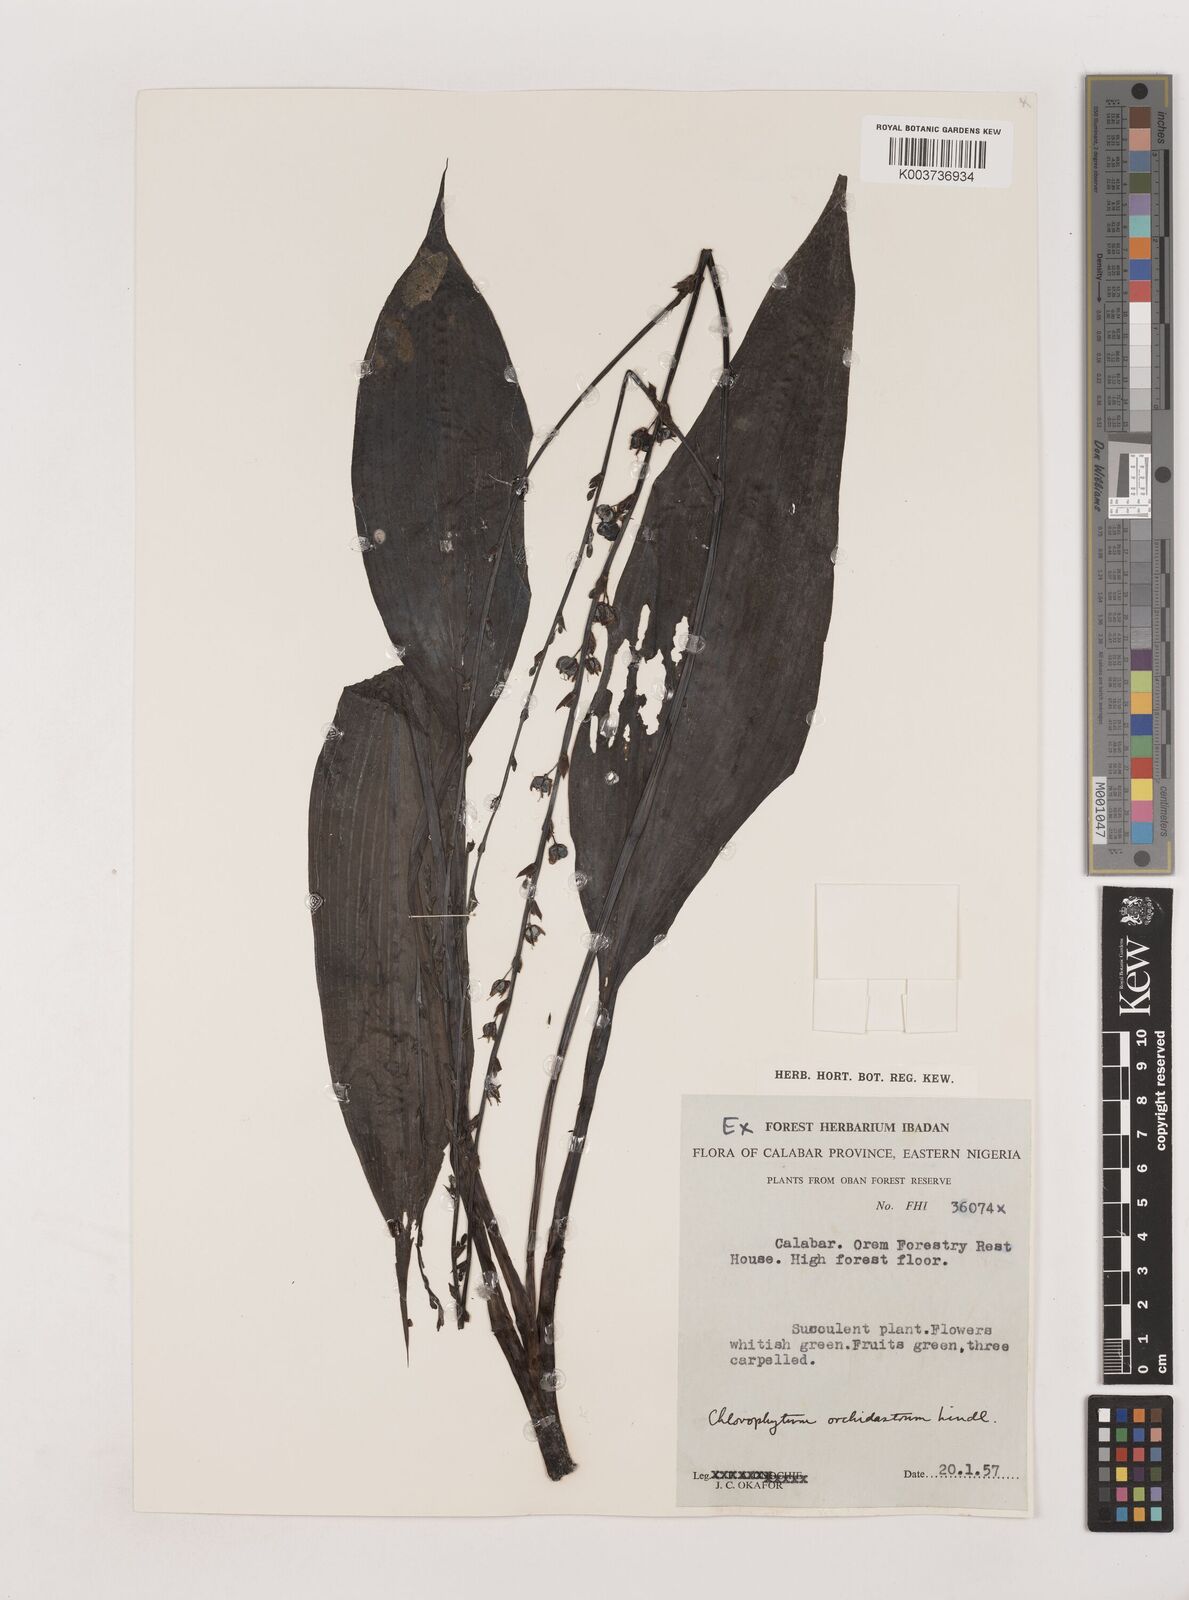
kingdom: Plantae
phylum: Tracheophyta
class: Liliopsida
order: Asparagales
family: Asparagaceae
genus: Chlorophytum
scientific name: Chlorophytum orchidastrum
